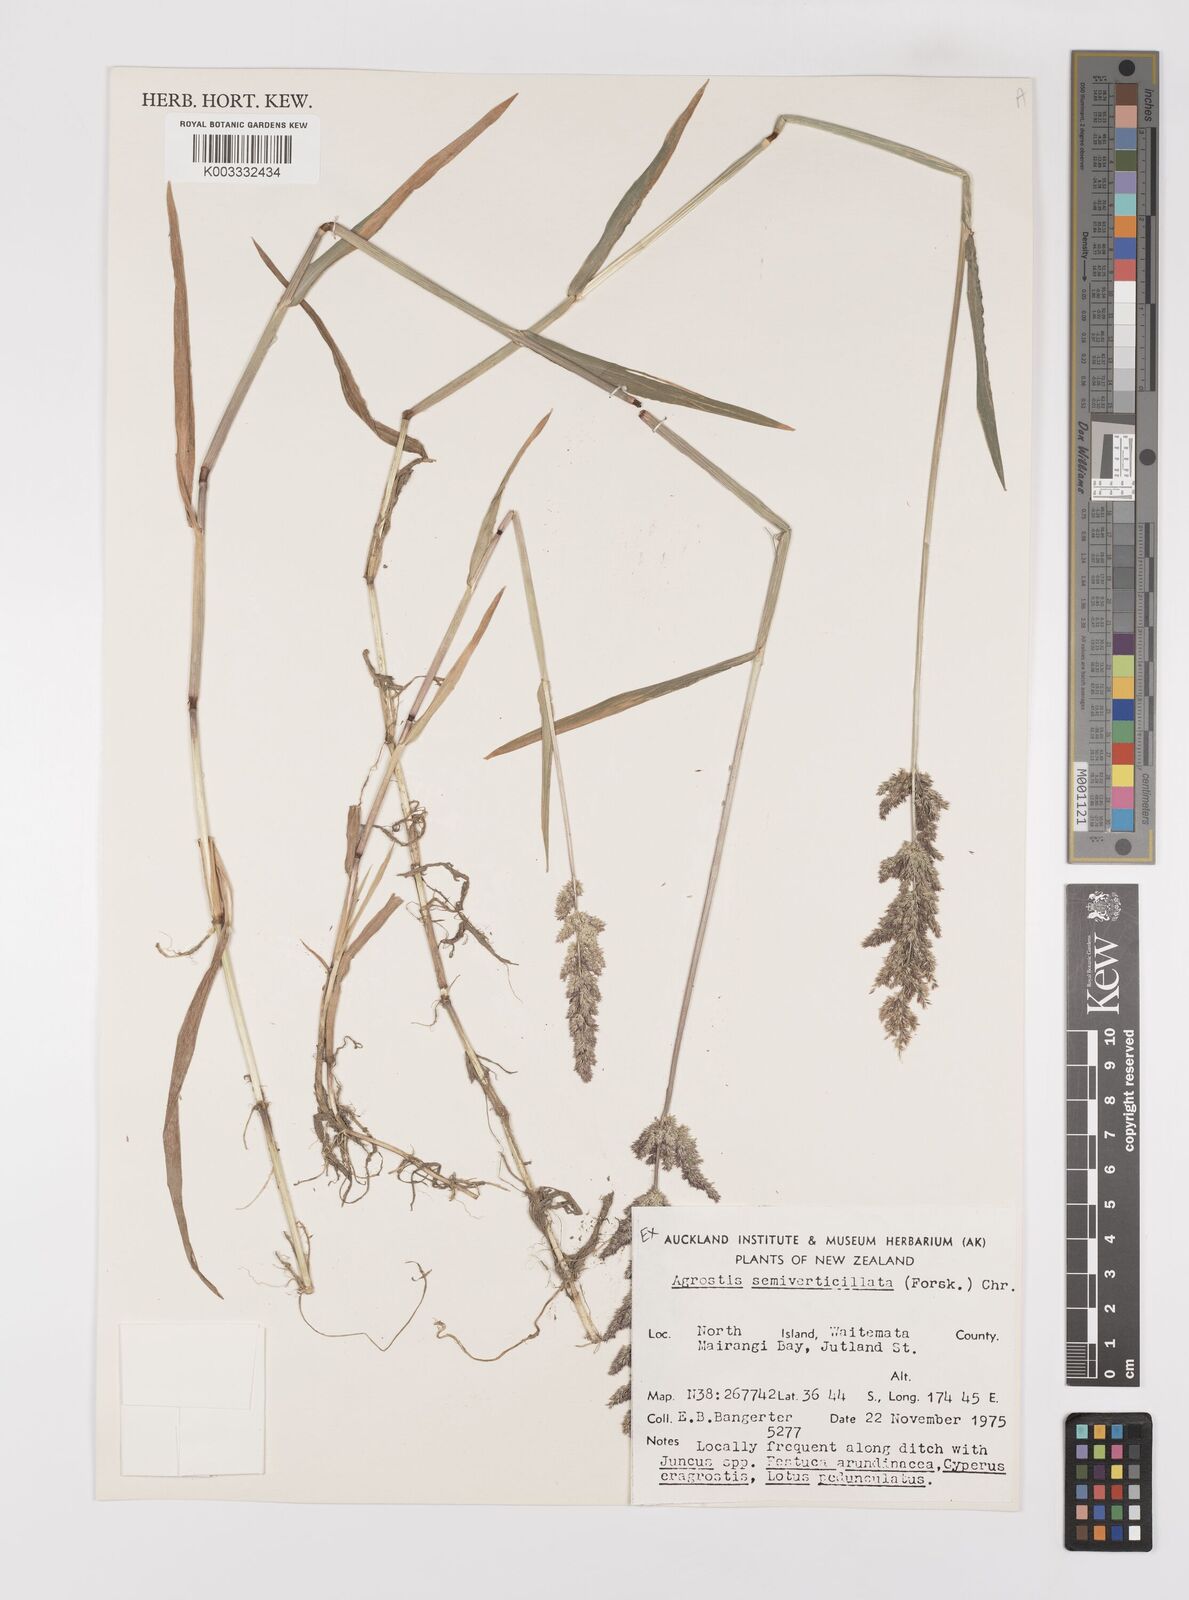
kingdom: Plantae
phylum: Tracheophyta
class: Liliopsida
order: Poales
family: Poaceae
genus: Polypogon
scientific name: Polypogon viridis
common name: Water bent
